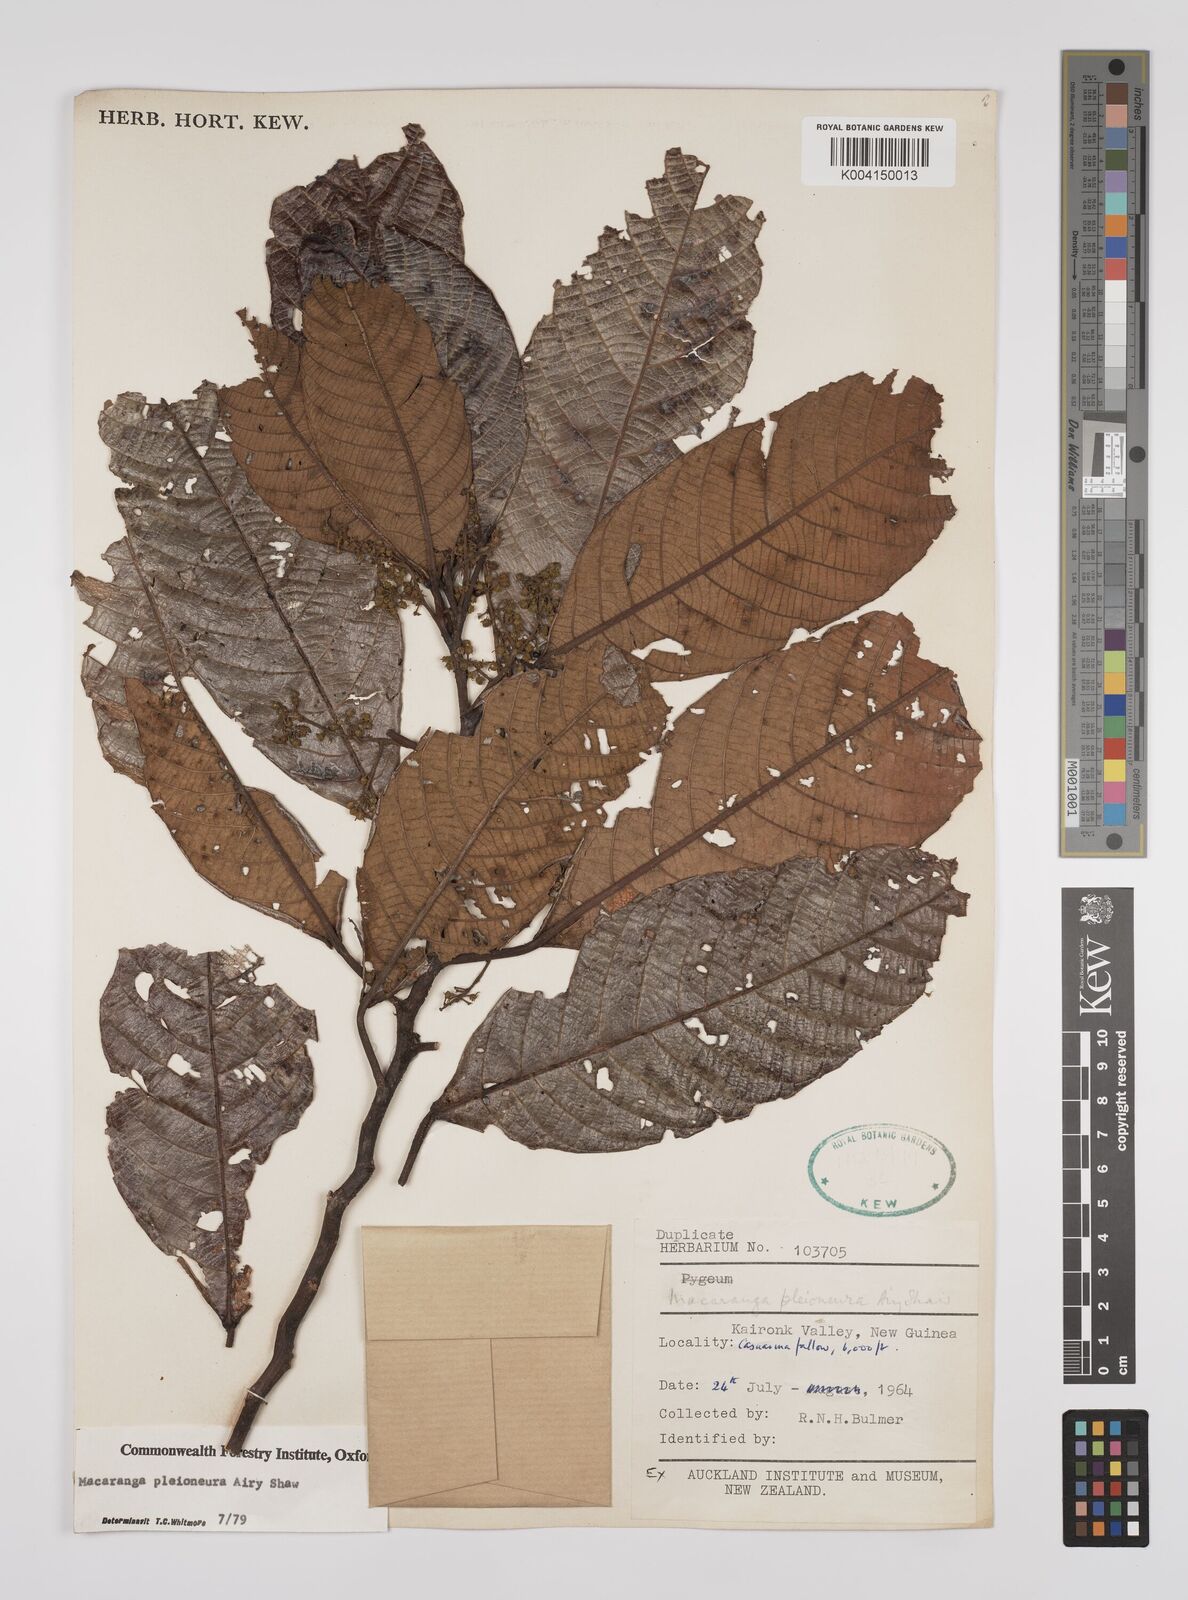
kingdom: Plantae
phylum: Tracheophyta
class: Magnoliopsida
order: Malpighiales
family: Euphorbiaceae
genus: Macaranga
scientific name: Macaranga pleioneura
